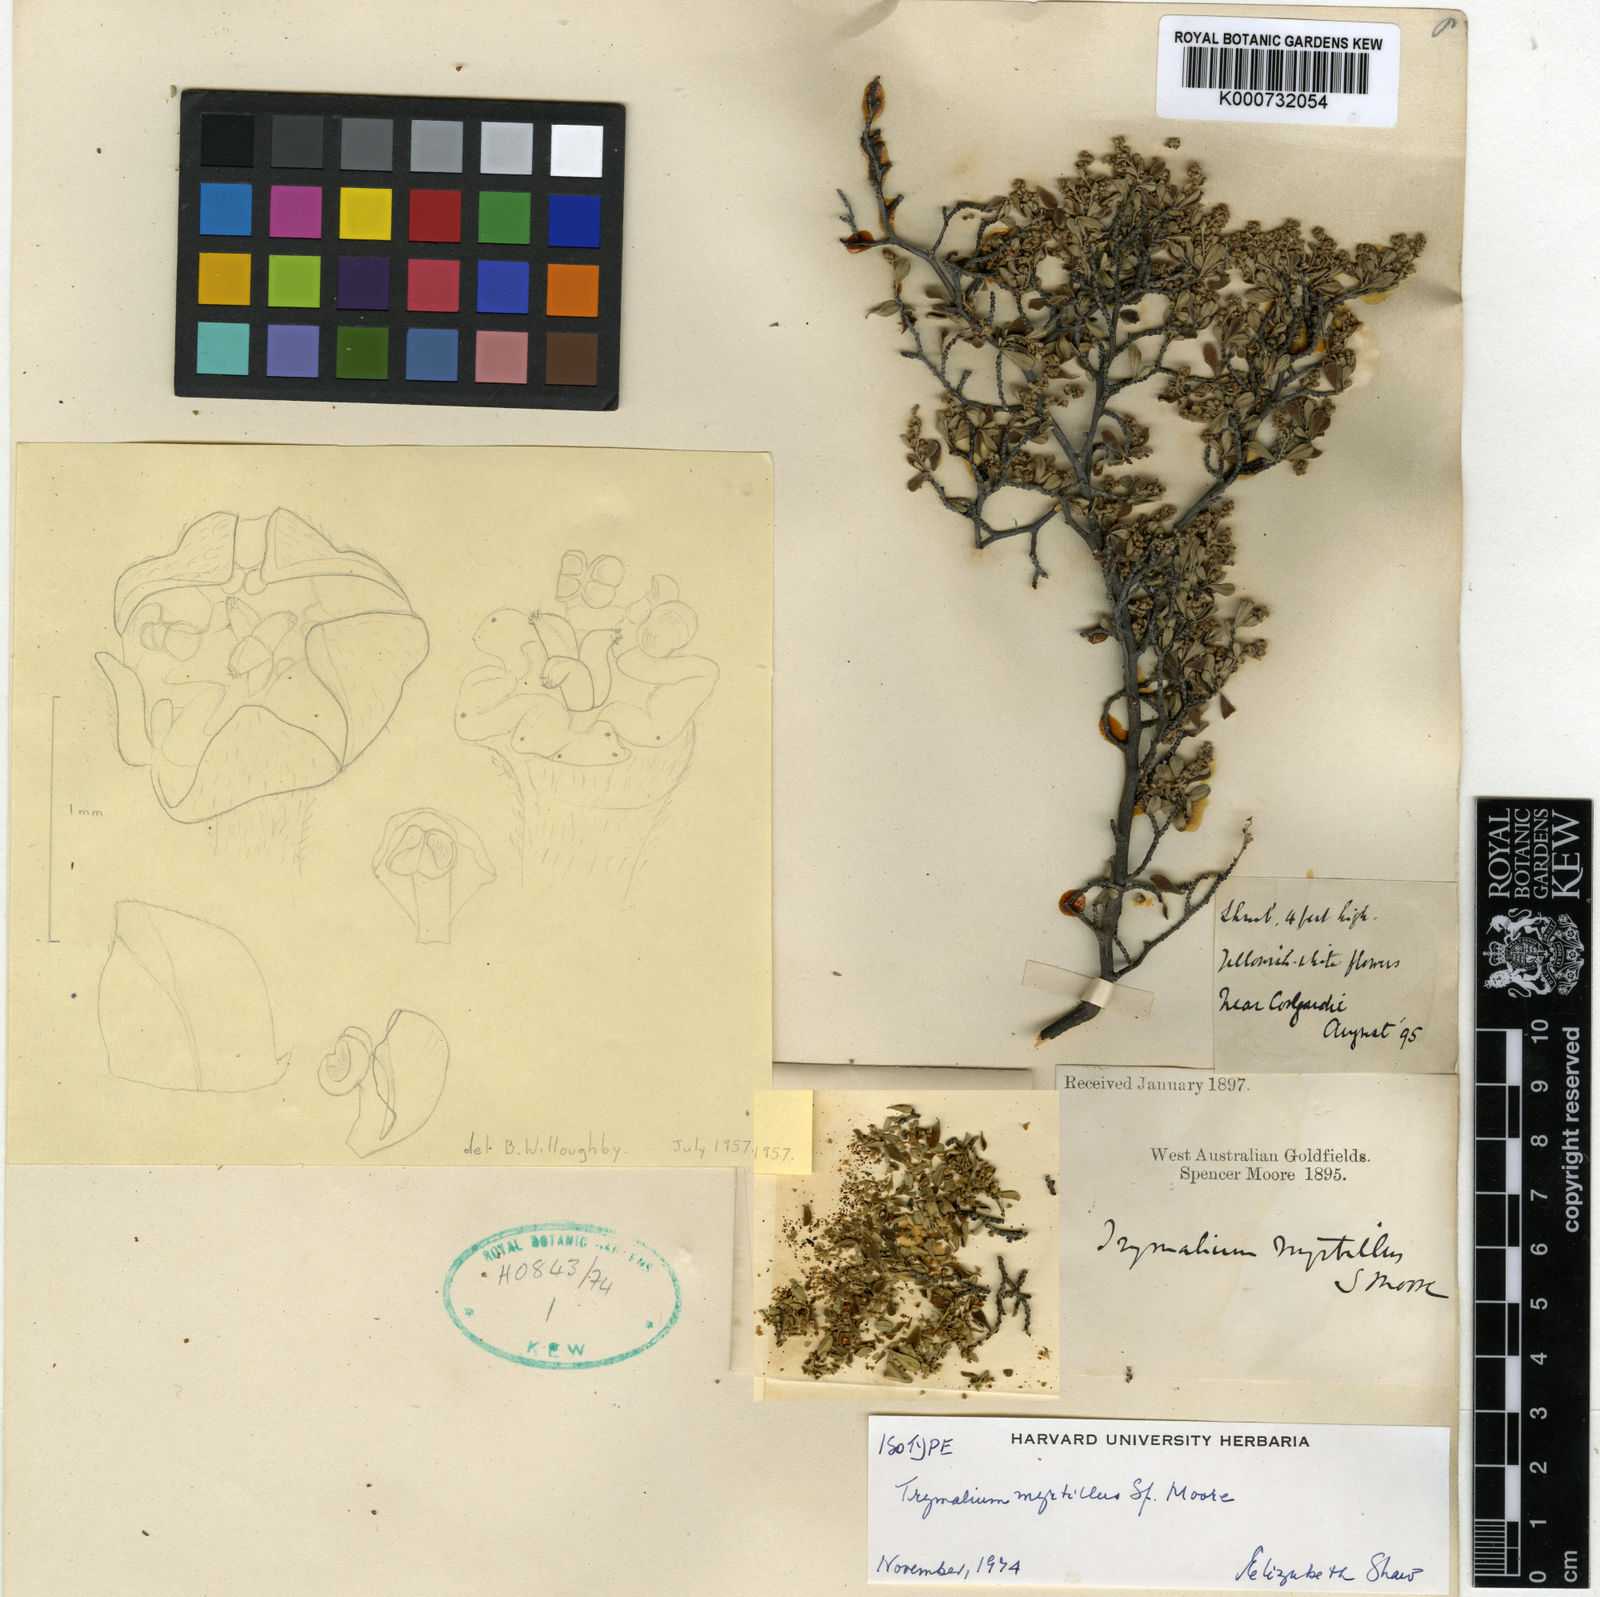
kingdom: Plantae
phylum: Tracheophyta
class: Magnoliopsida
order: Rosales
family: Rhamnaceae
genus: Trymalium
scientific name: Trymalium myrtillus
